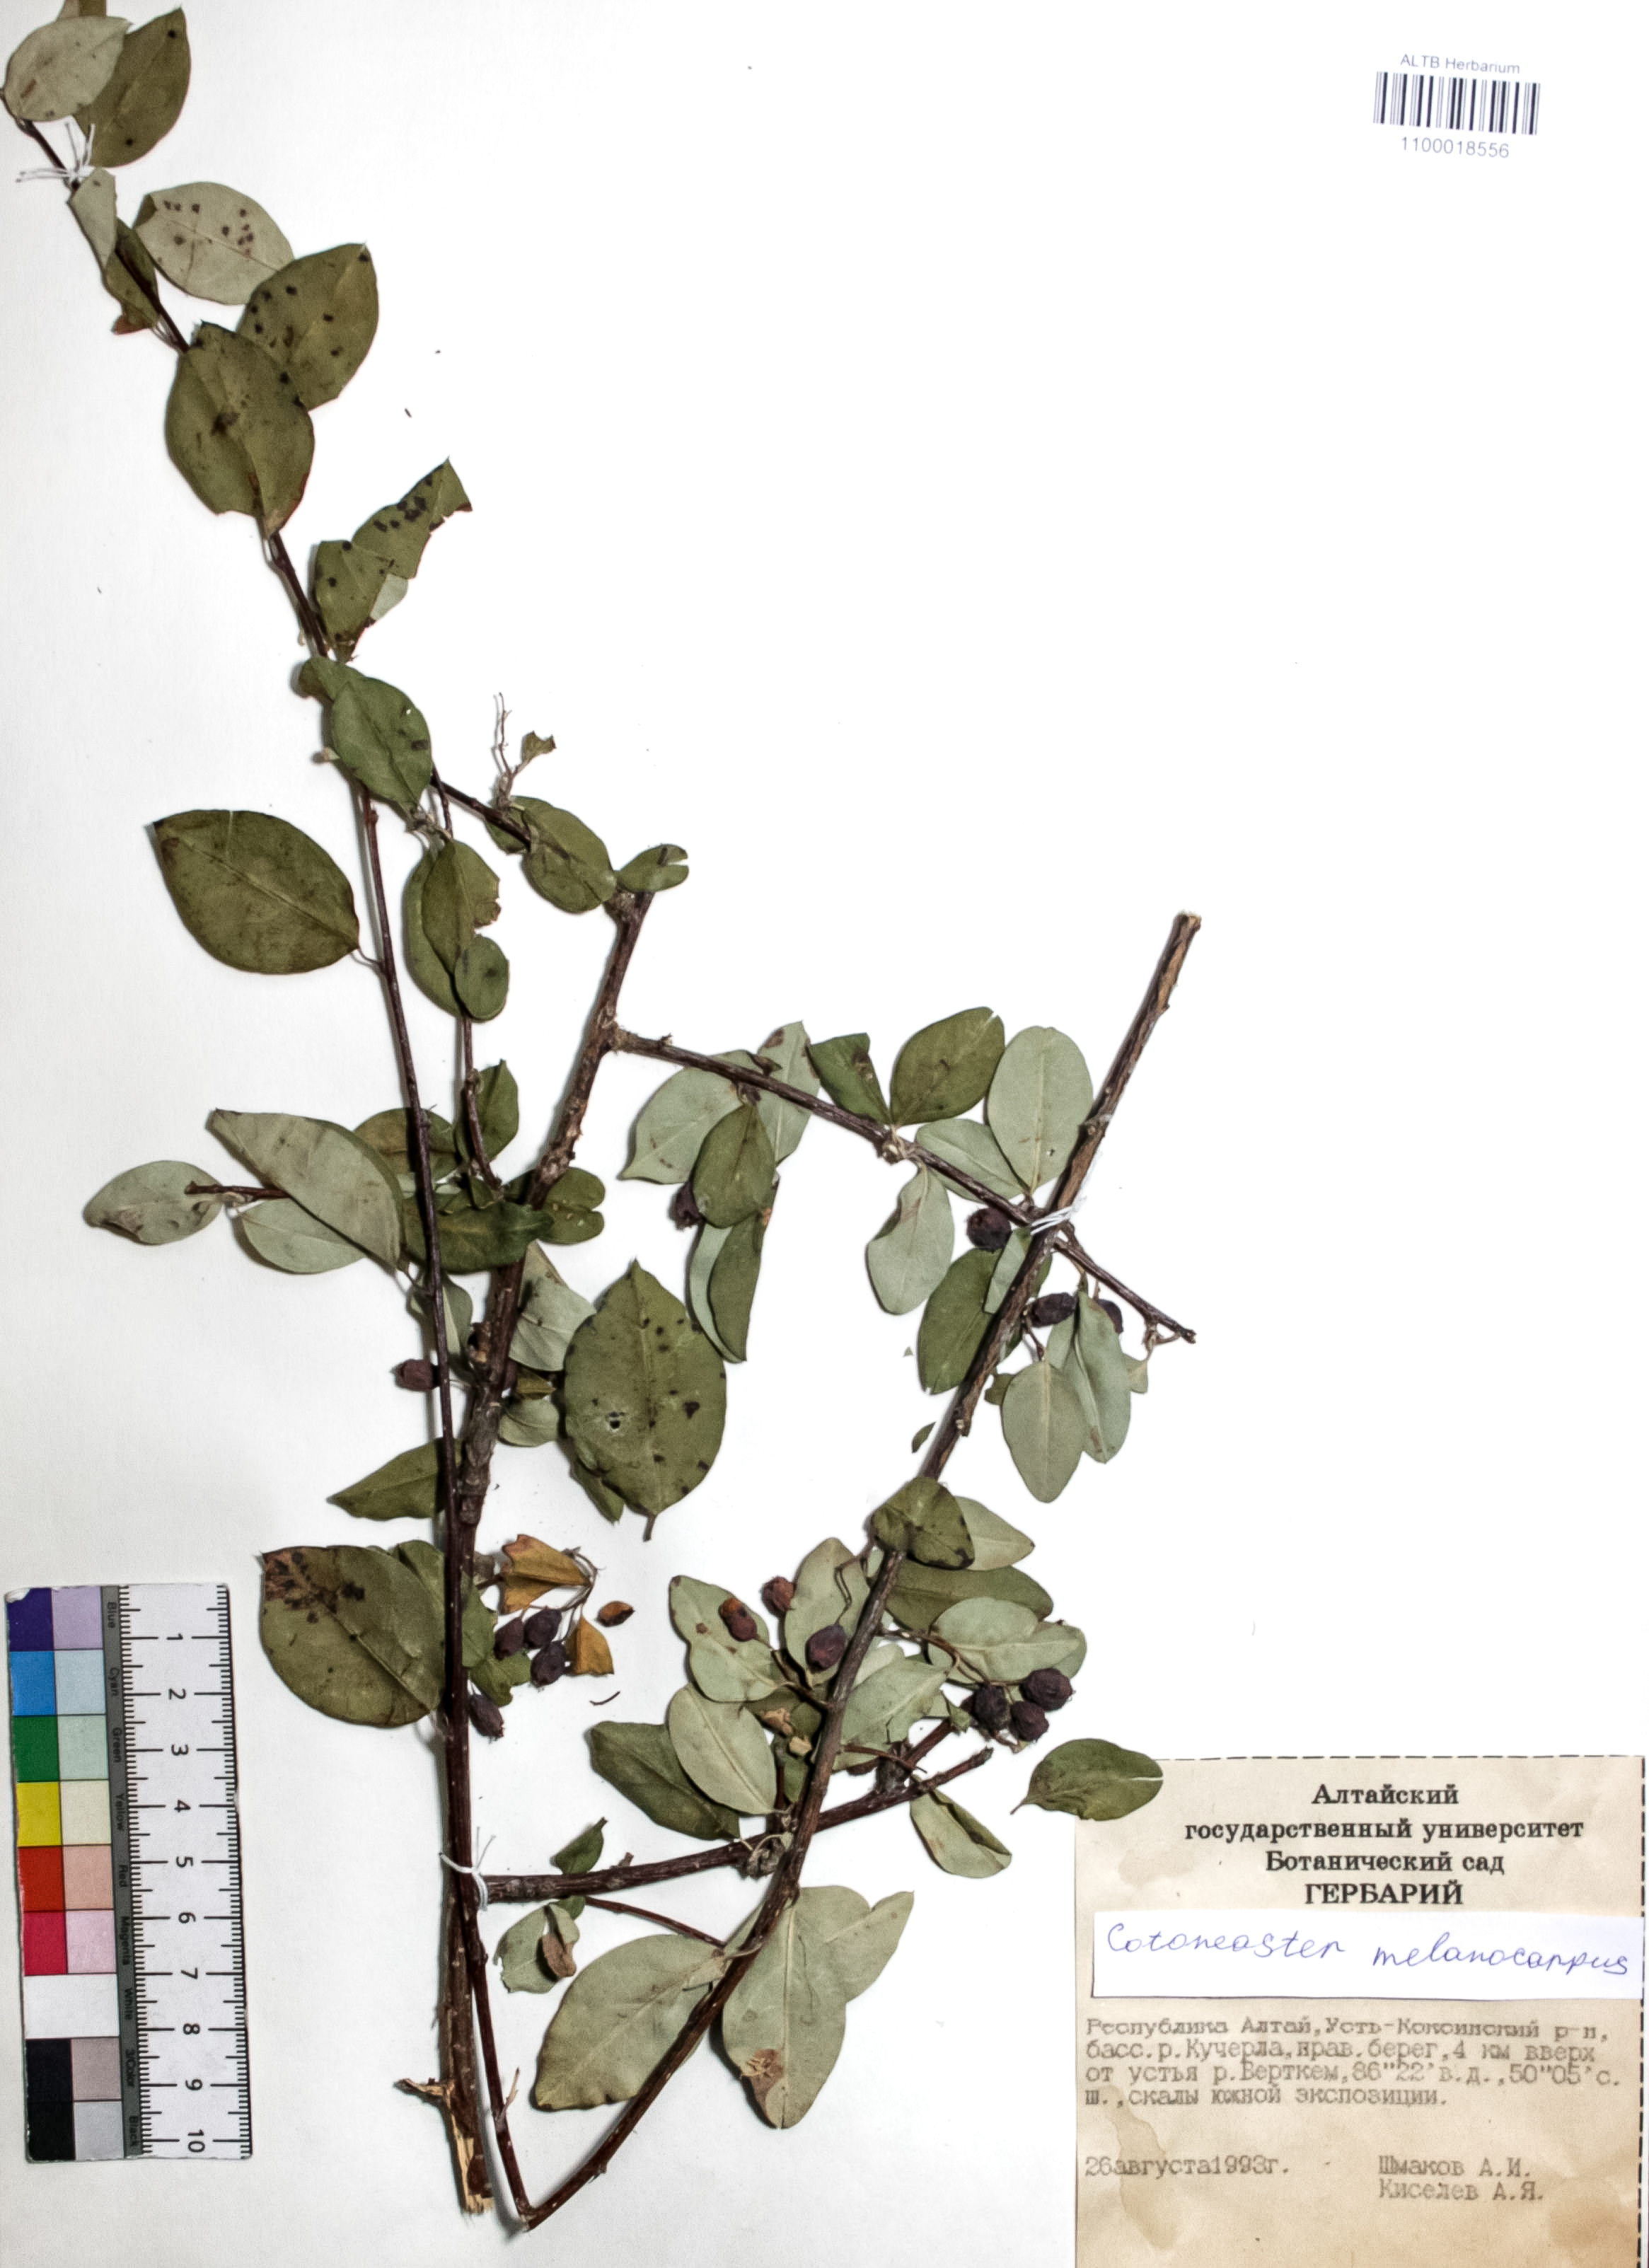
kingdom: Plantae
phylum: Tracheophyta
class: Magnoliopsida
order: Rosales
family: Rosaceae
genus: Cotoneaster
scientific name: Cotoneaster niger
